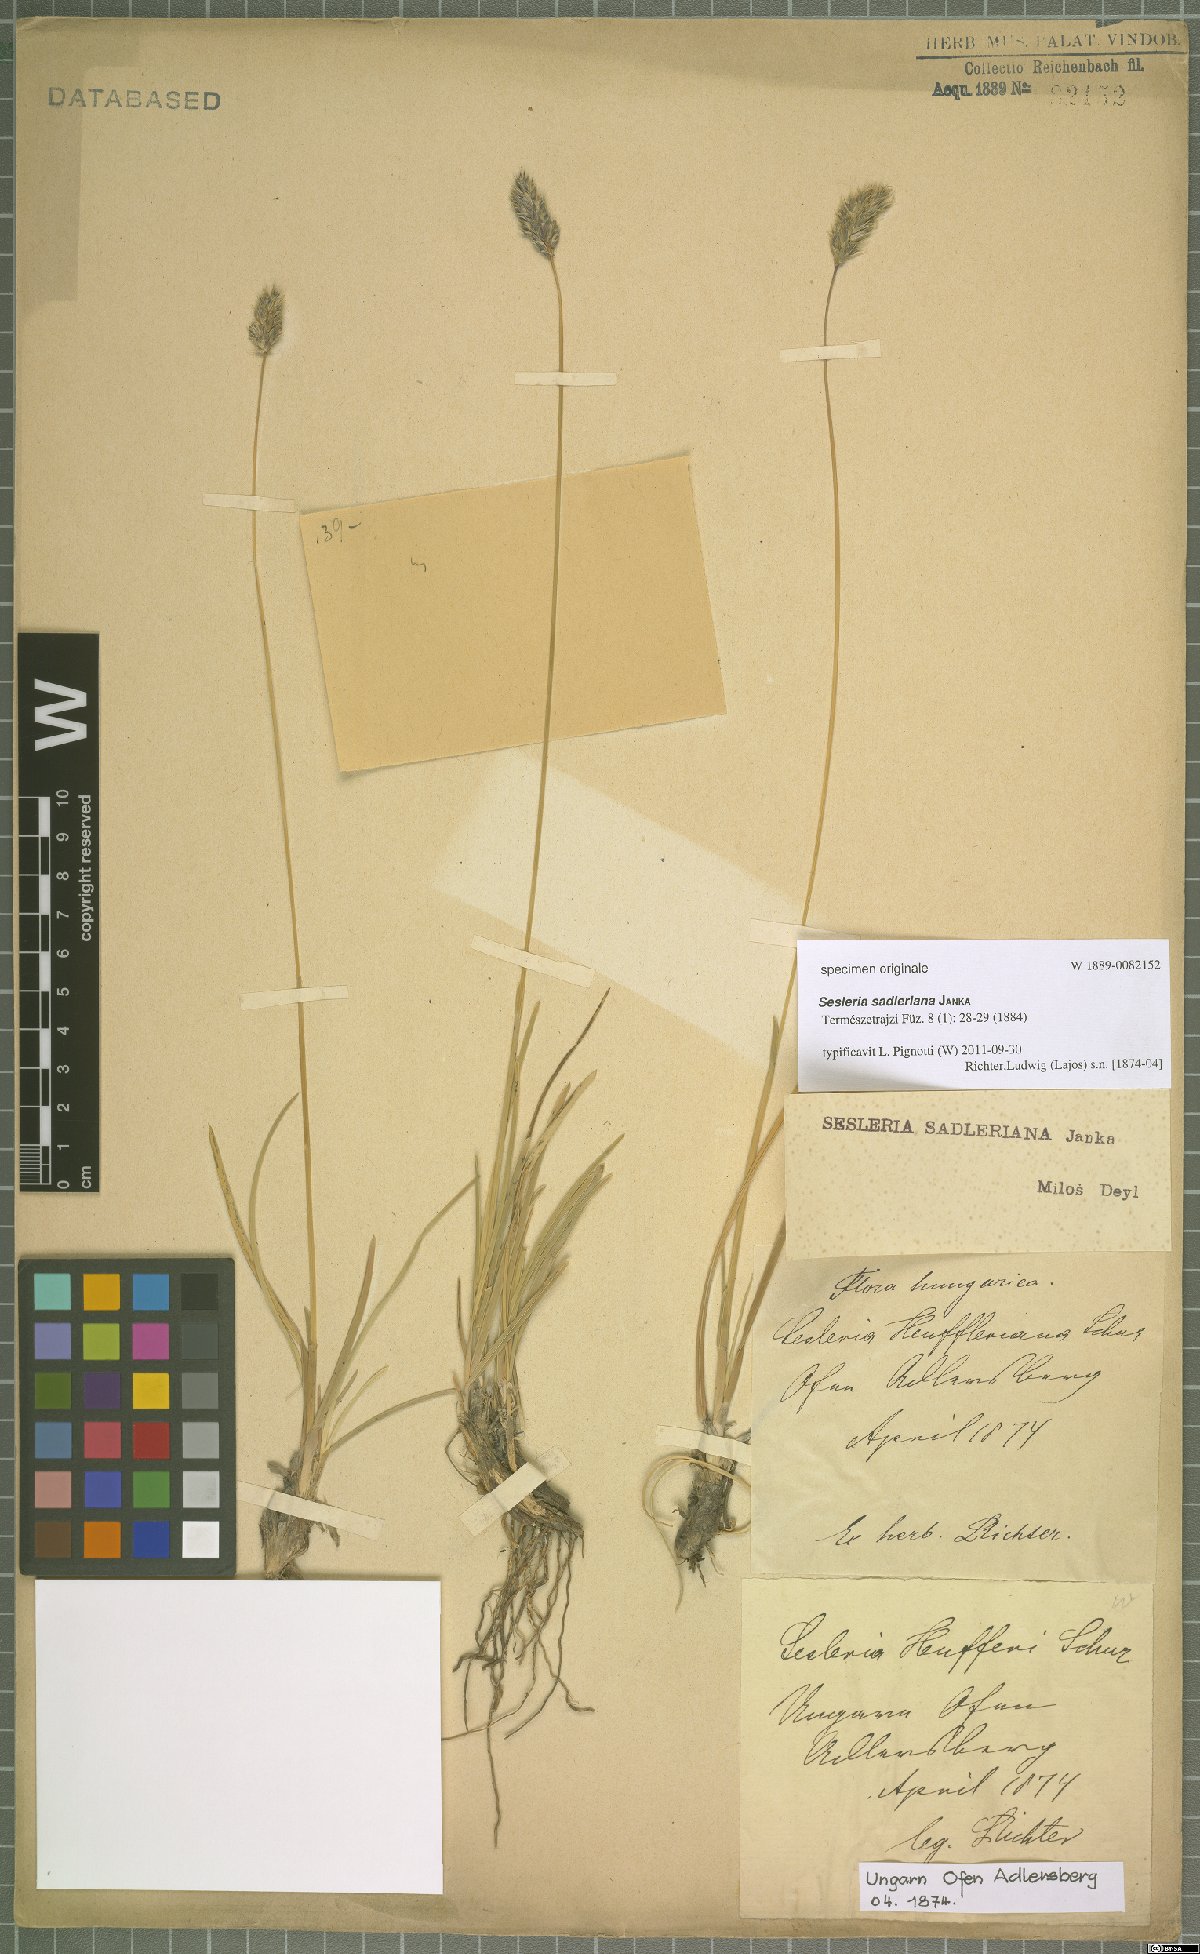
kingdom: Plantae
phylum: Tracheophyta
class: Liliopsida
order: Poales
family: Poaceae
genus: Sesleria
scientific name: Sesleria sadleriana
